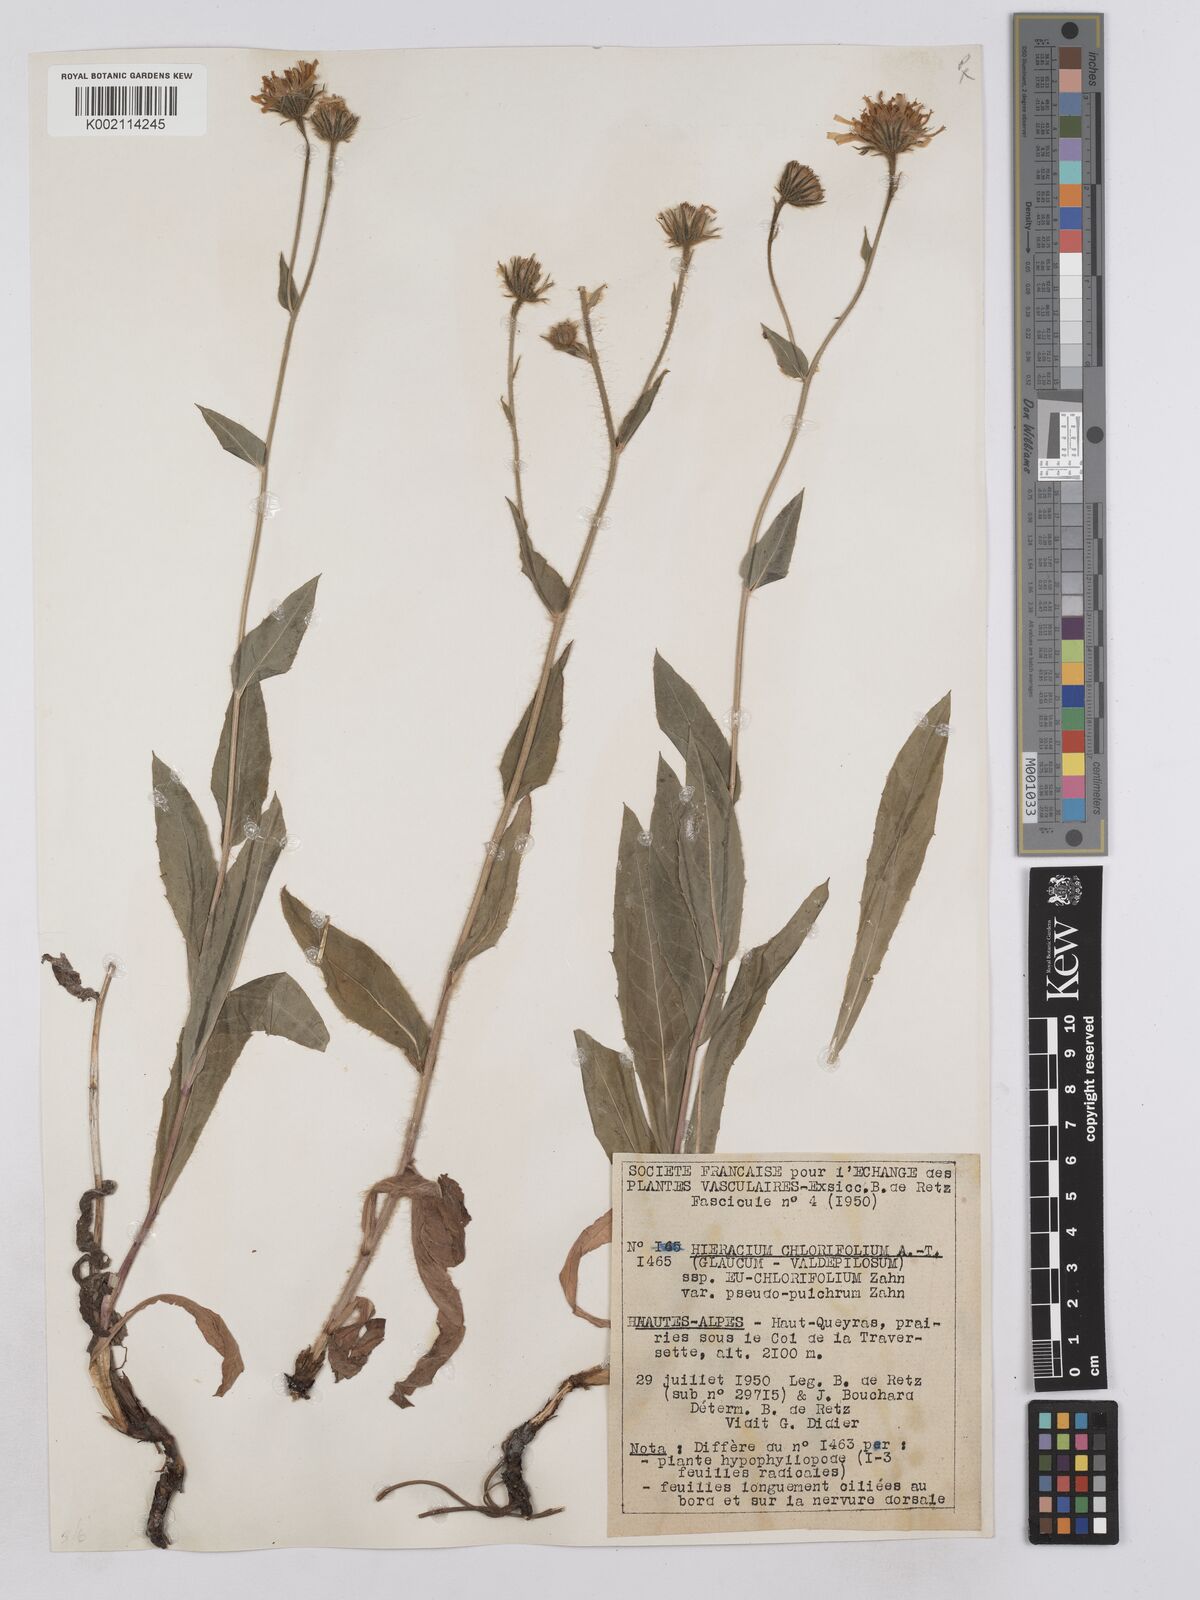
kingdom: Plantae
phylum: Tracheophyta
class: Magnoliopsida
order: Asterales
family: Asteraceae
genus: Hieracium
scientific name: Hieracium chlorifolium
